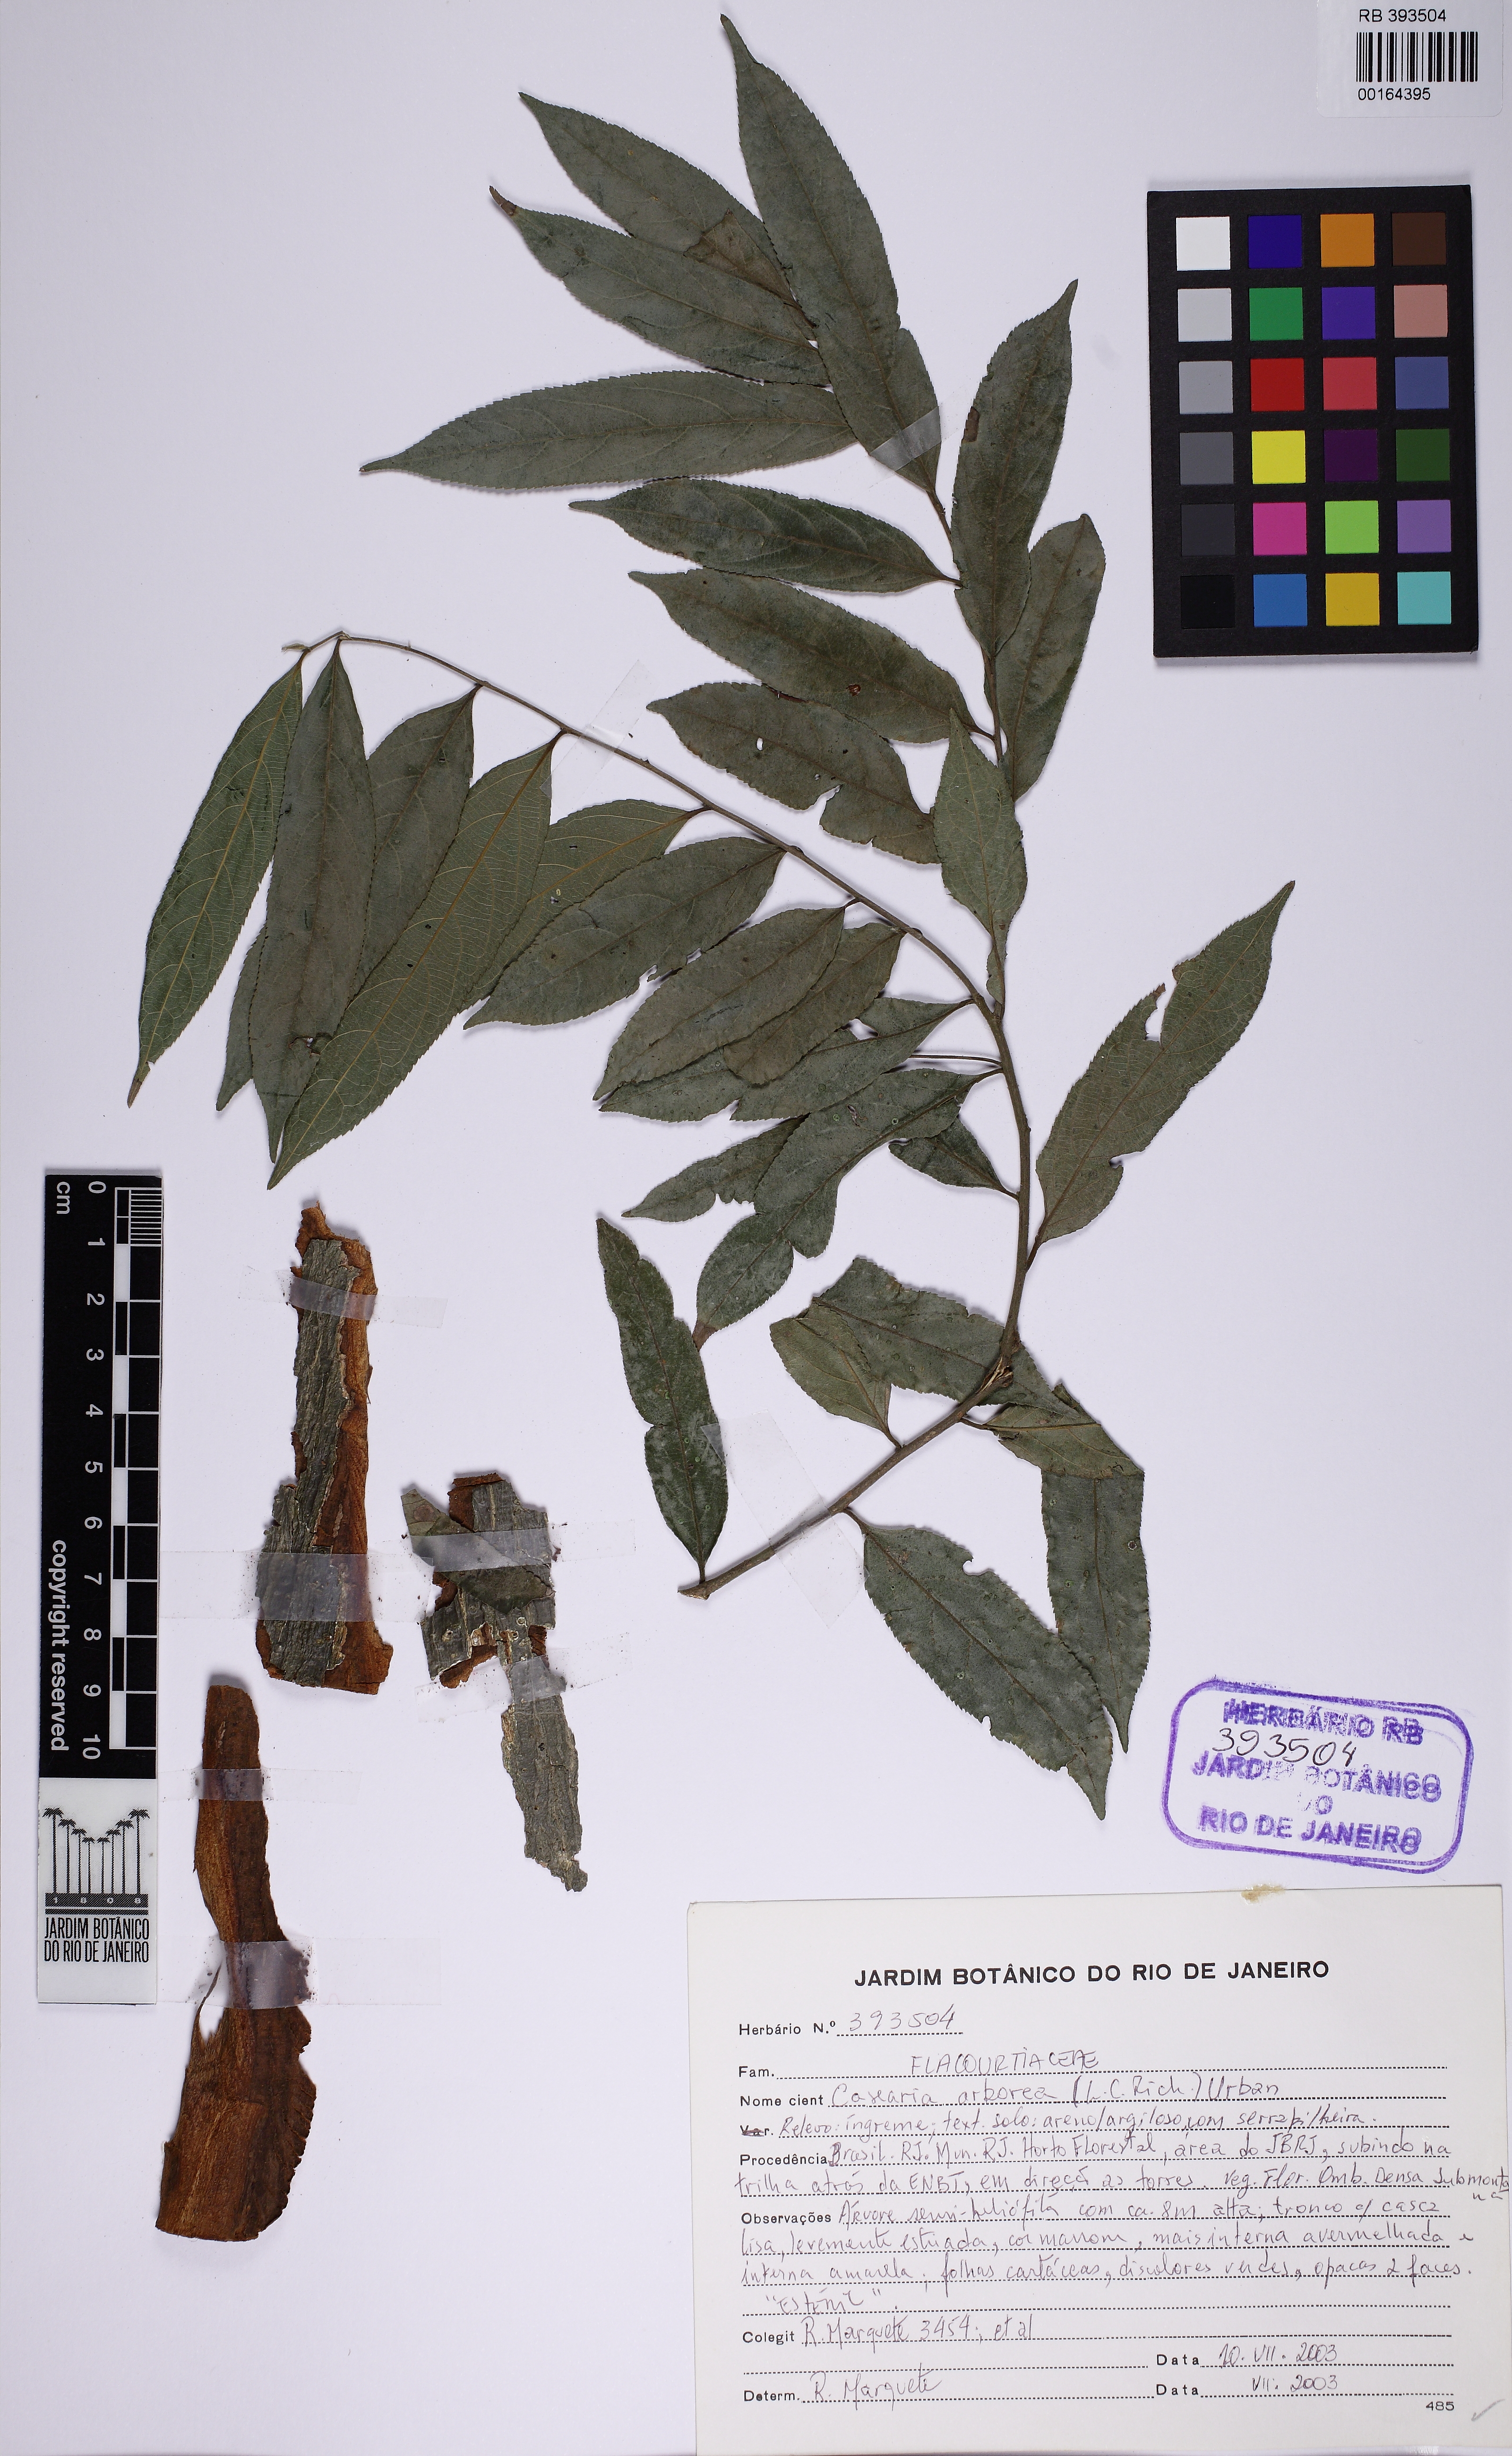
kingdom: Plantae
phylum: Tracheophyta
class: Magnoliopsida
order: Malpighiales
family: Salicaceae
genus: Casearia
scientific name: Casearia
